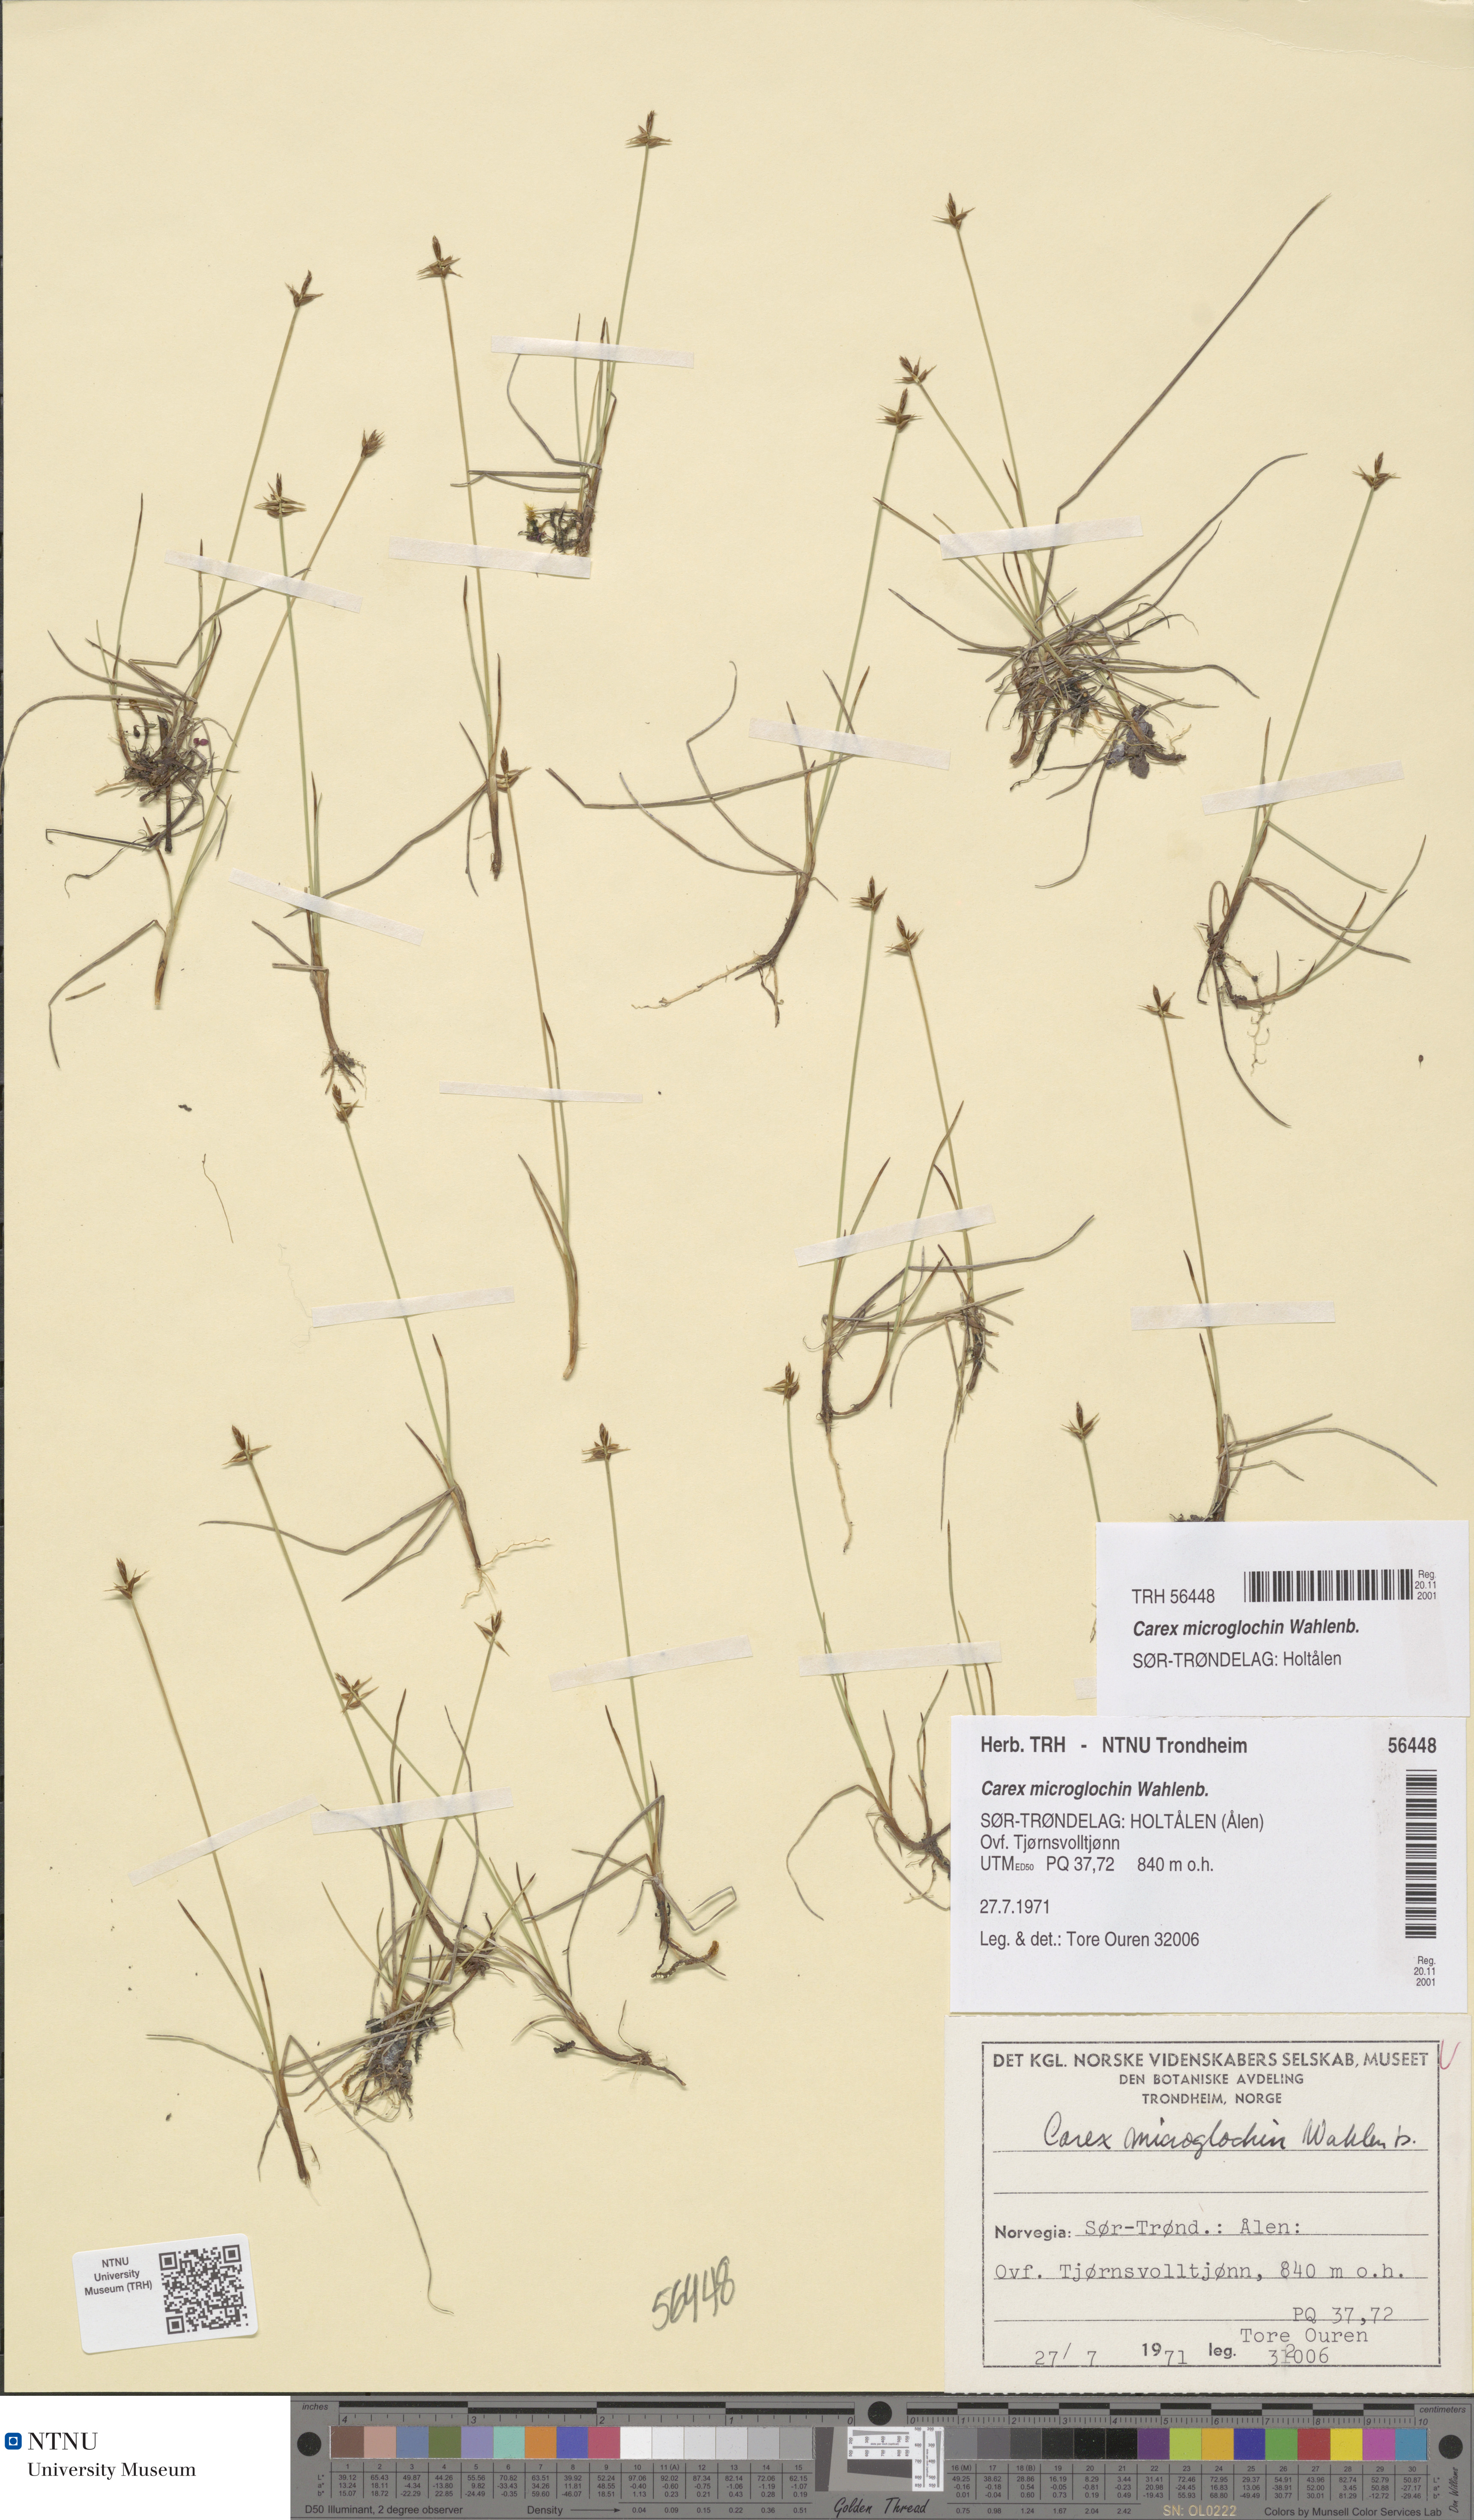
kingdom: Plantae
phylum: Tracheophyta
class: Liliopsida
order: Poales
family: Cyperaceae
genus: Carex
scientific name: Carex microglochin
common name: Bristle sedge
